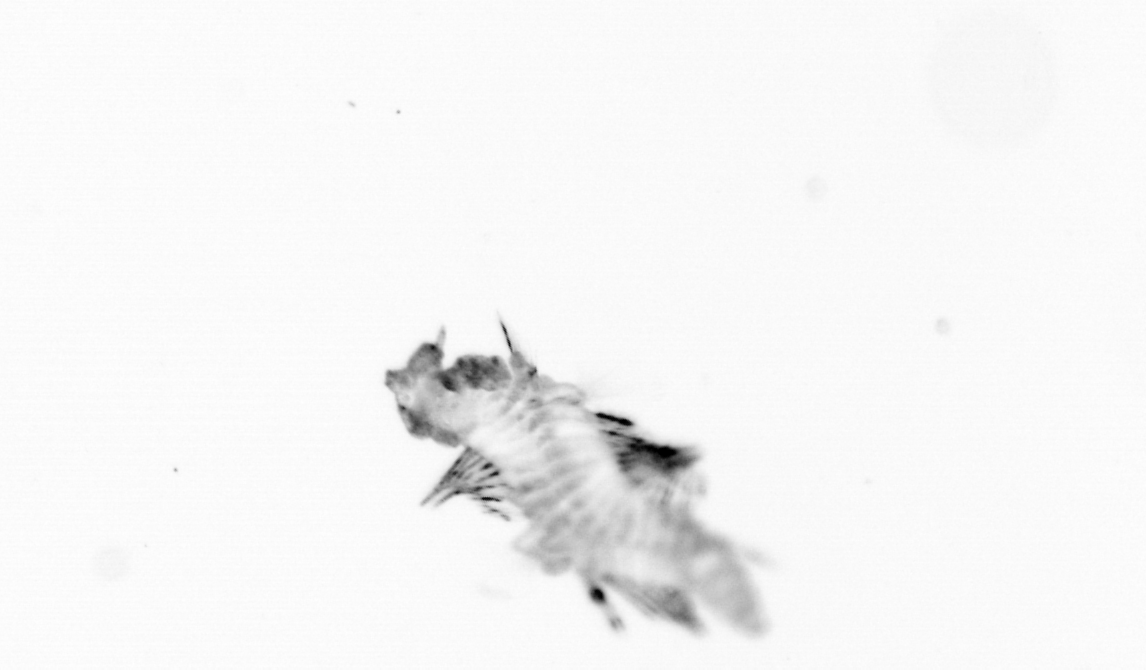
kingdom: Animalia
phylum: Annelida
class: Polychaeta
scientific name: Polychaeta
